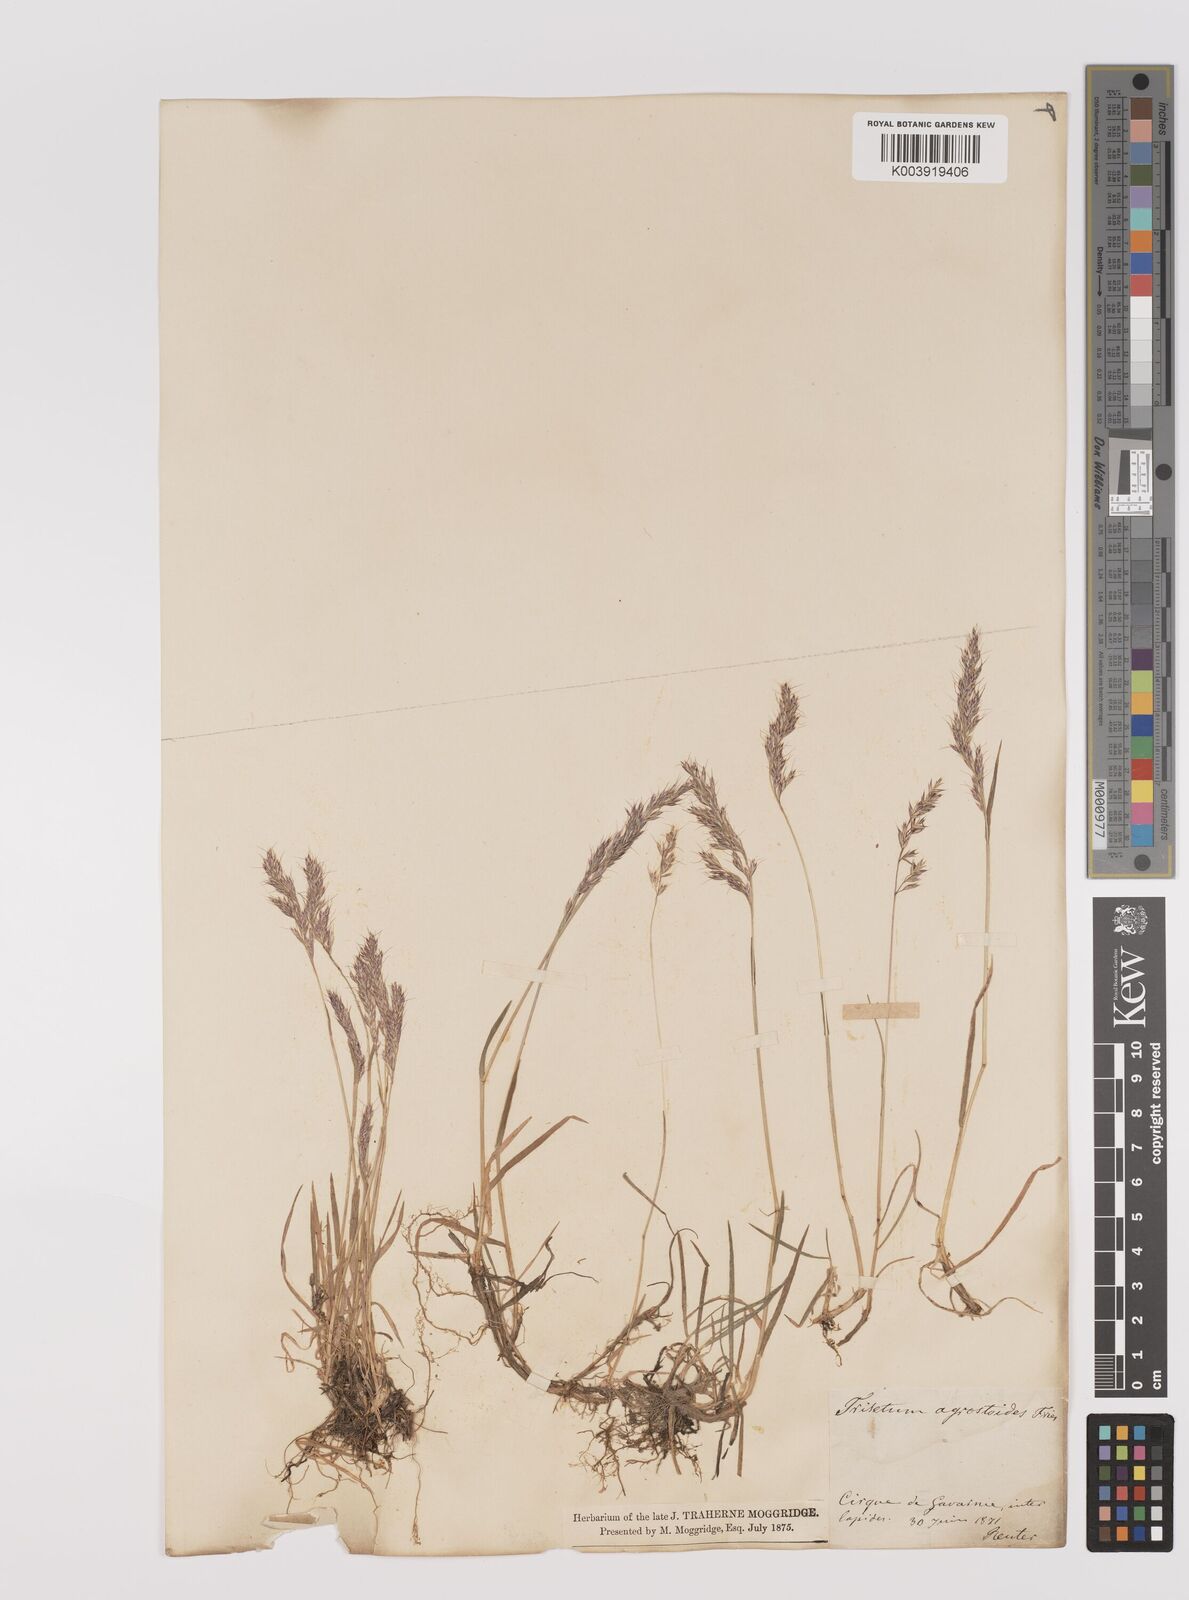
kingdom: Plantae
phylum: Tracheophyta
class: Liliopsida
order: Poales
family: Poaceae
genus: Acrospelion
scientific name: Acrospelion distichophyllum
